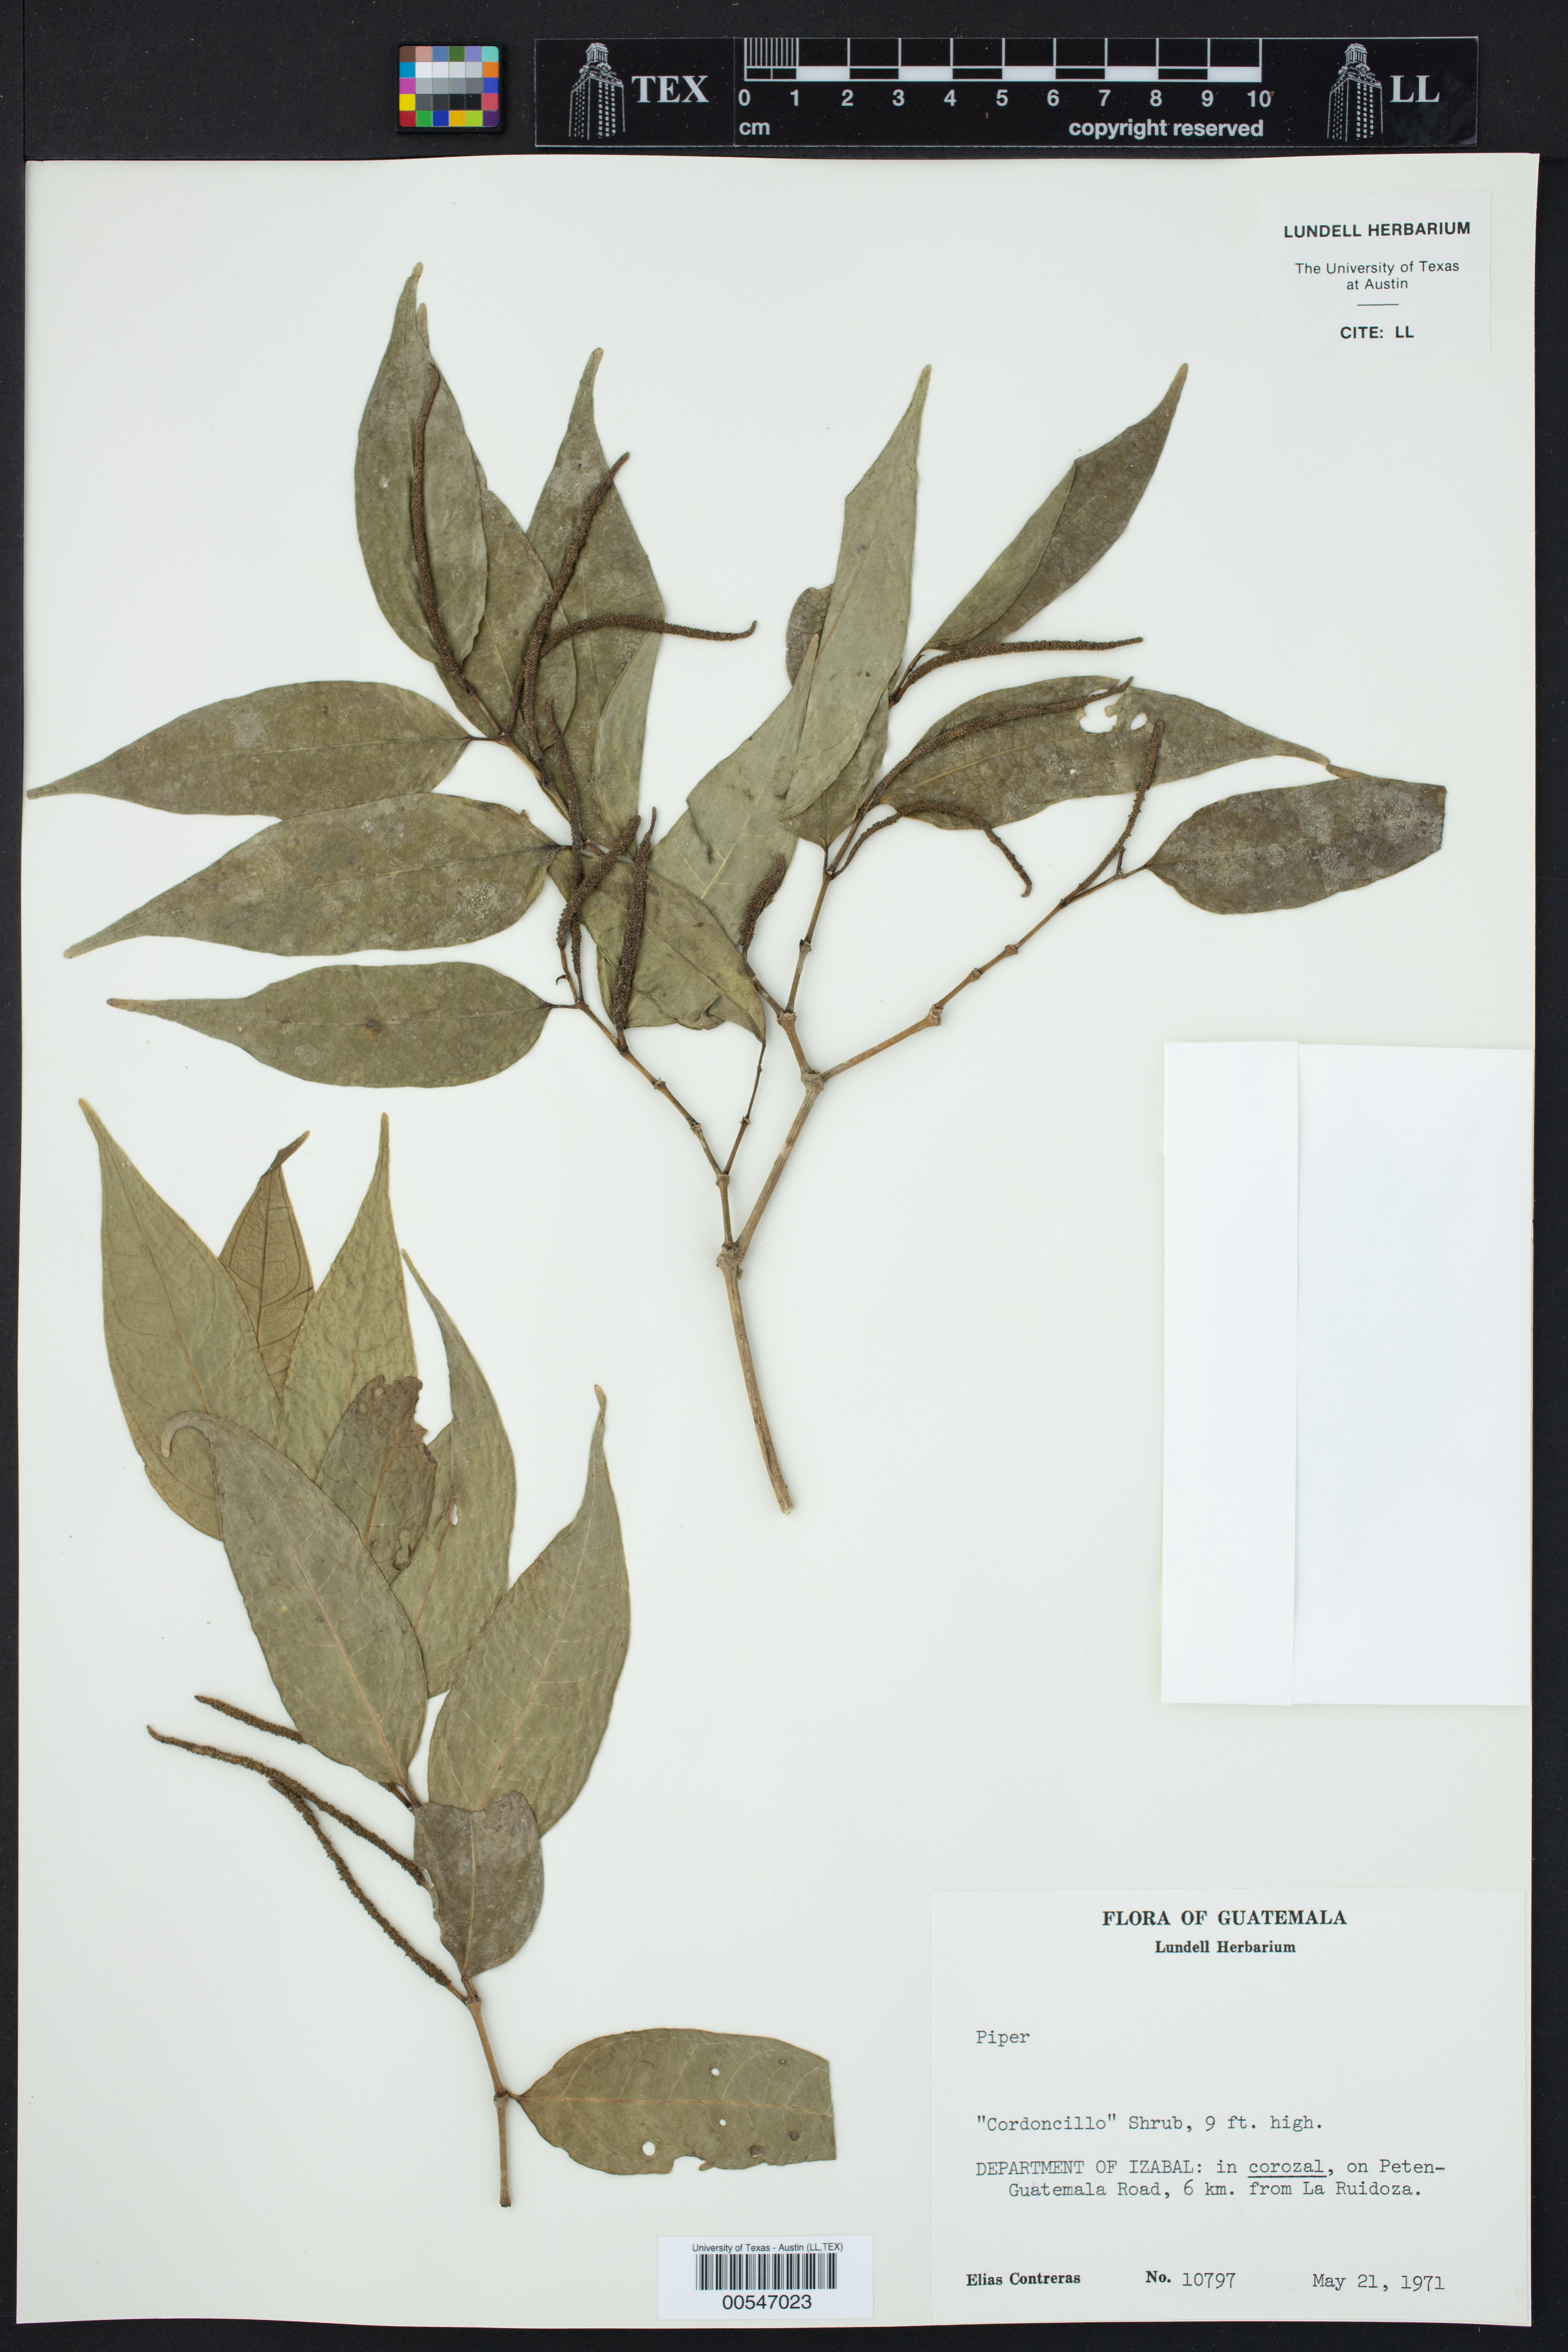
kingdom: Plantae
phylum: Tracheophyta
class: Magnoliopsida
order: Piperales
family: Piperaceae
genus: Piper
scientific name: Piper
